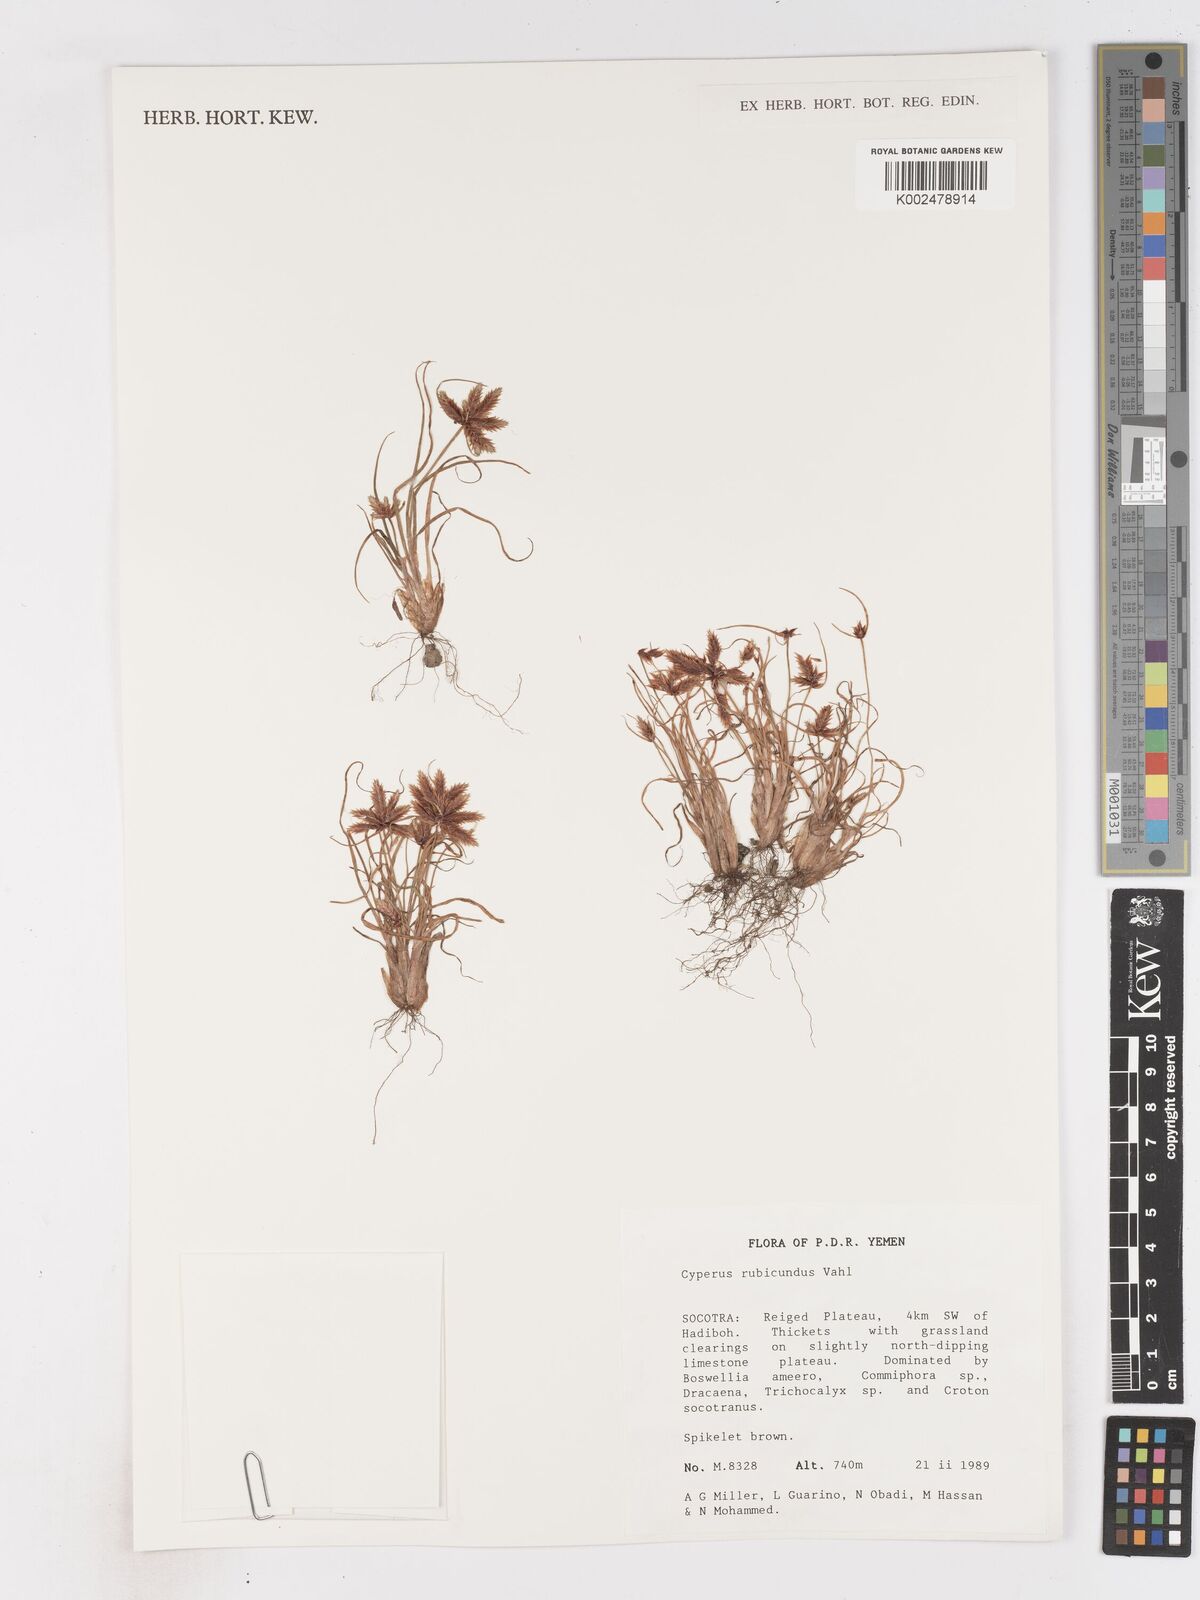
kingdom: Plantae
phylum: Tracheophyta
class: Liliopsida
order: Poales
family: Cyperaceae
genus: Cyperus
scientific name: Cyperus rubicundus
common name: Coco-grass
